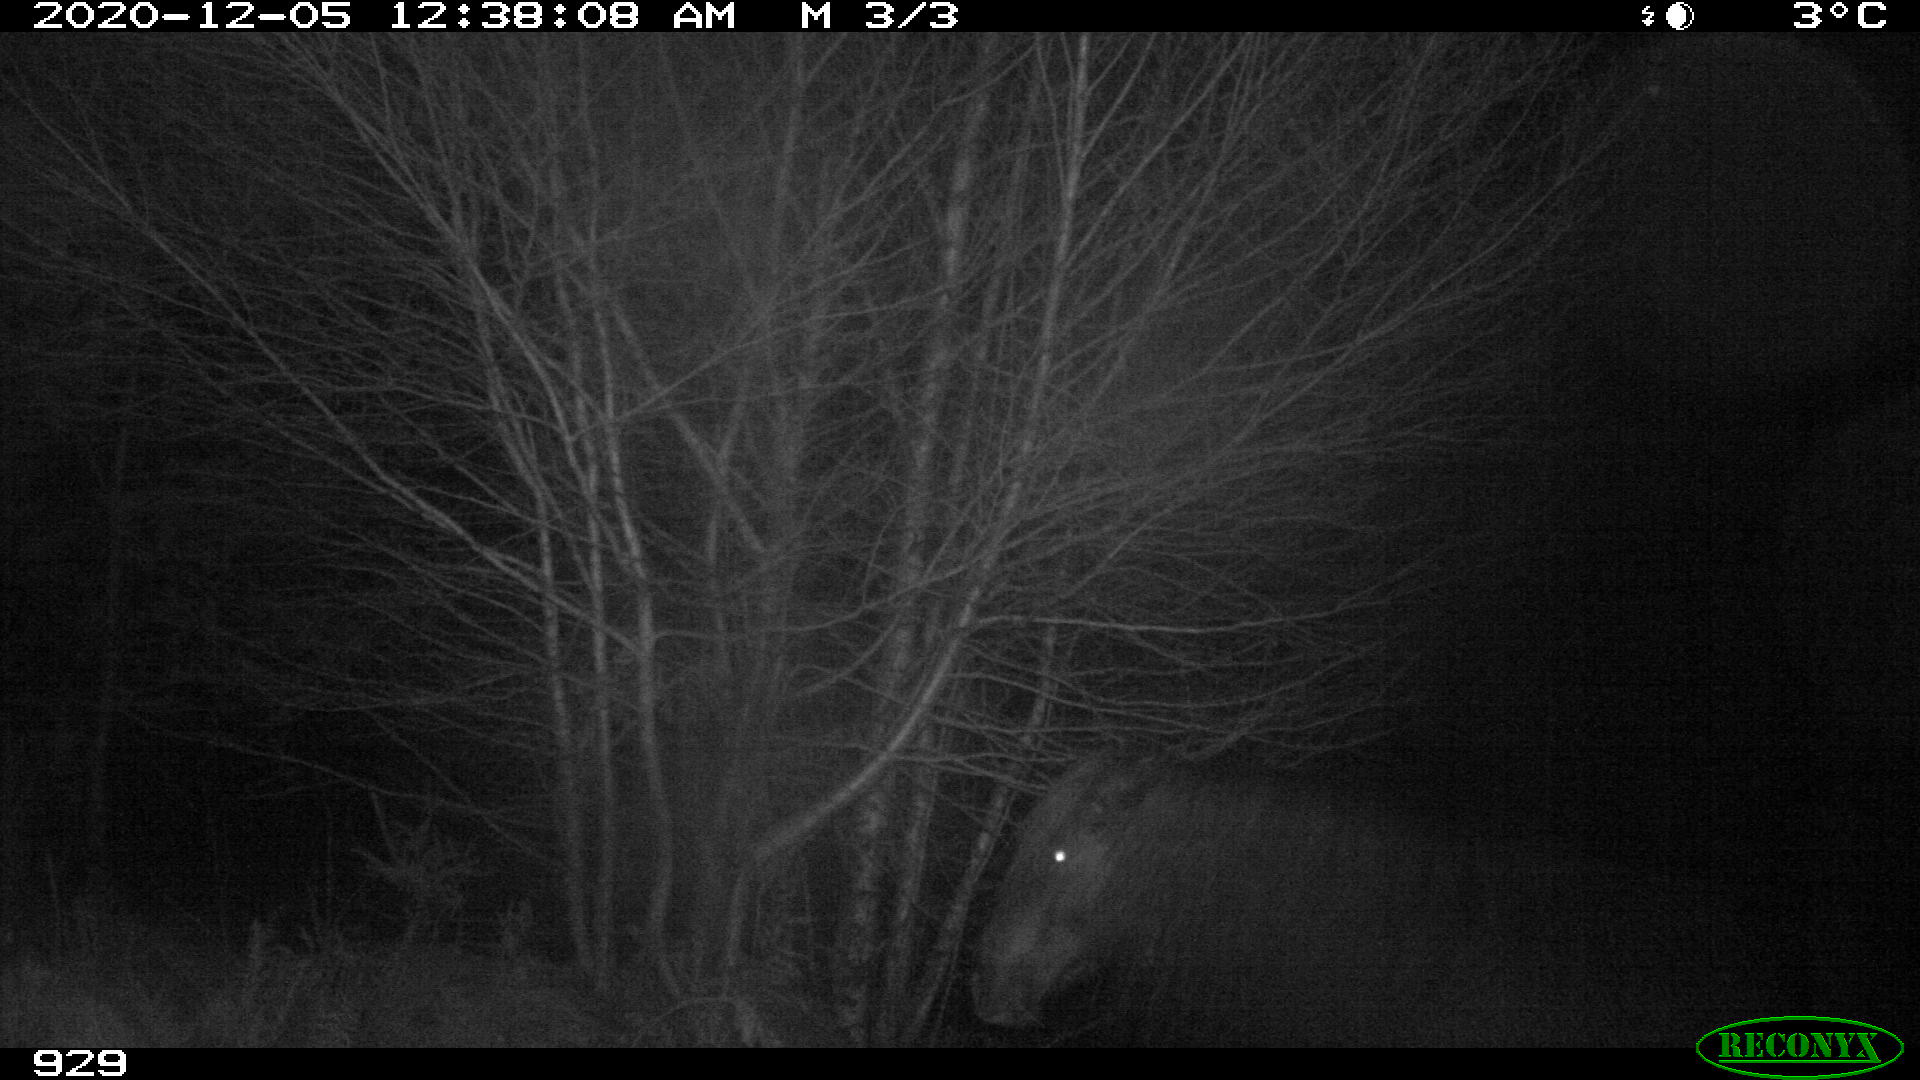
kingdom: Animalia
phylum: Chordata
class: Mammalia
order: Perissodactyla
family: Equidae
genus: Equus
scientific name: Equus caballus
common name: Horse
